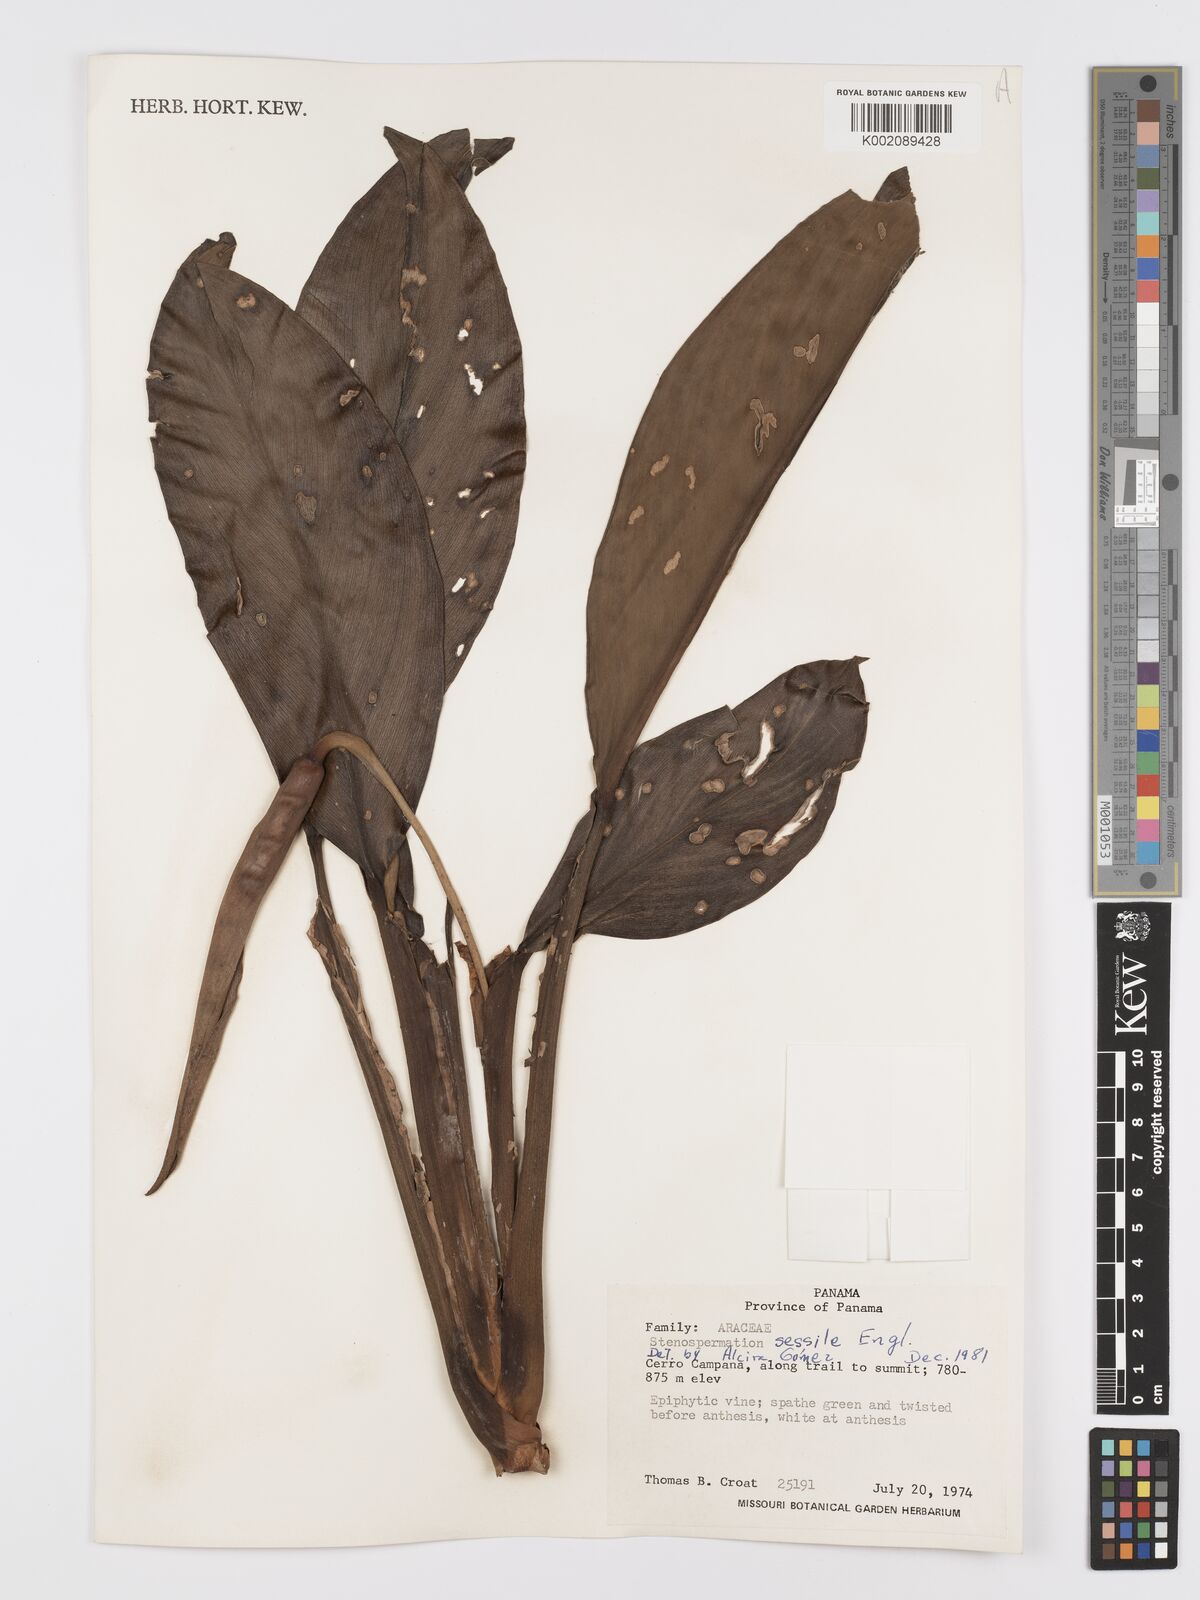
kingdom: Plantae
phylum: Tracheophyta
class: Liliopsida
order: Alismatales
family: Araceae
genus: Stenospermation
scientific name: Stenospermation sessile
